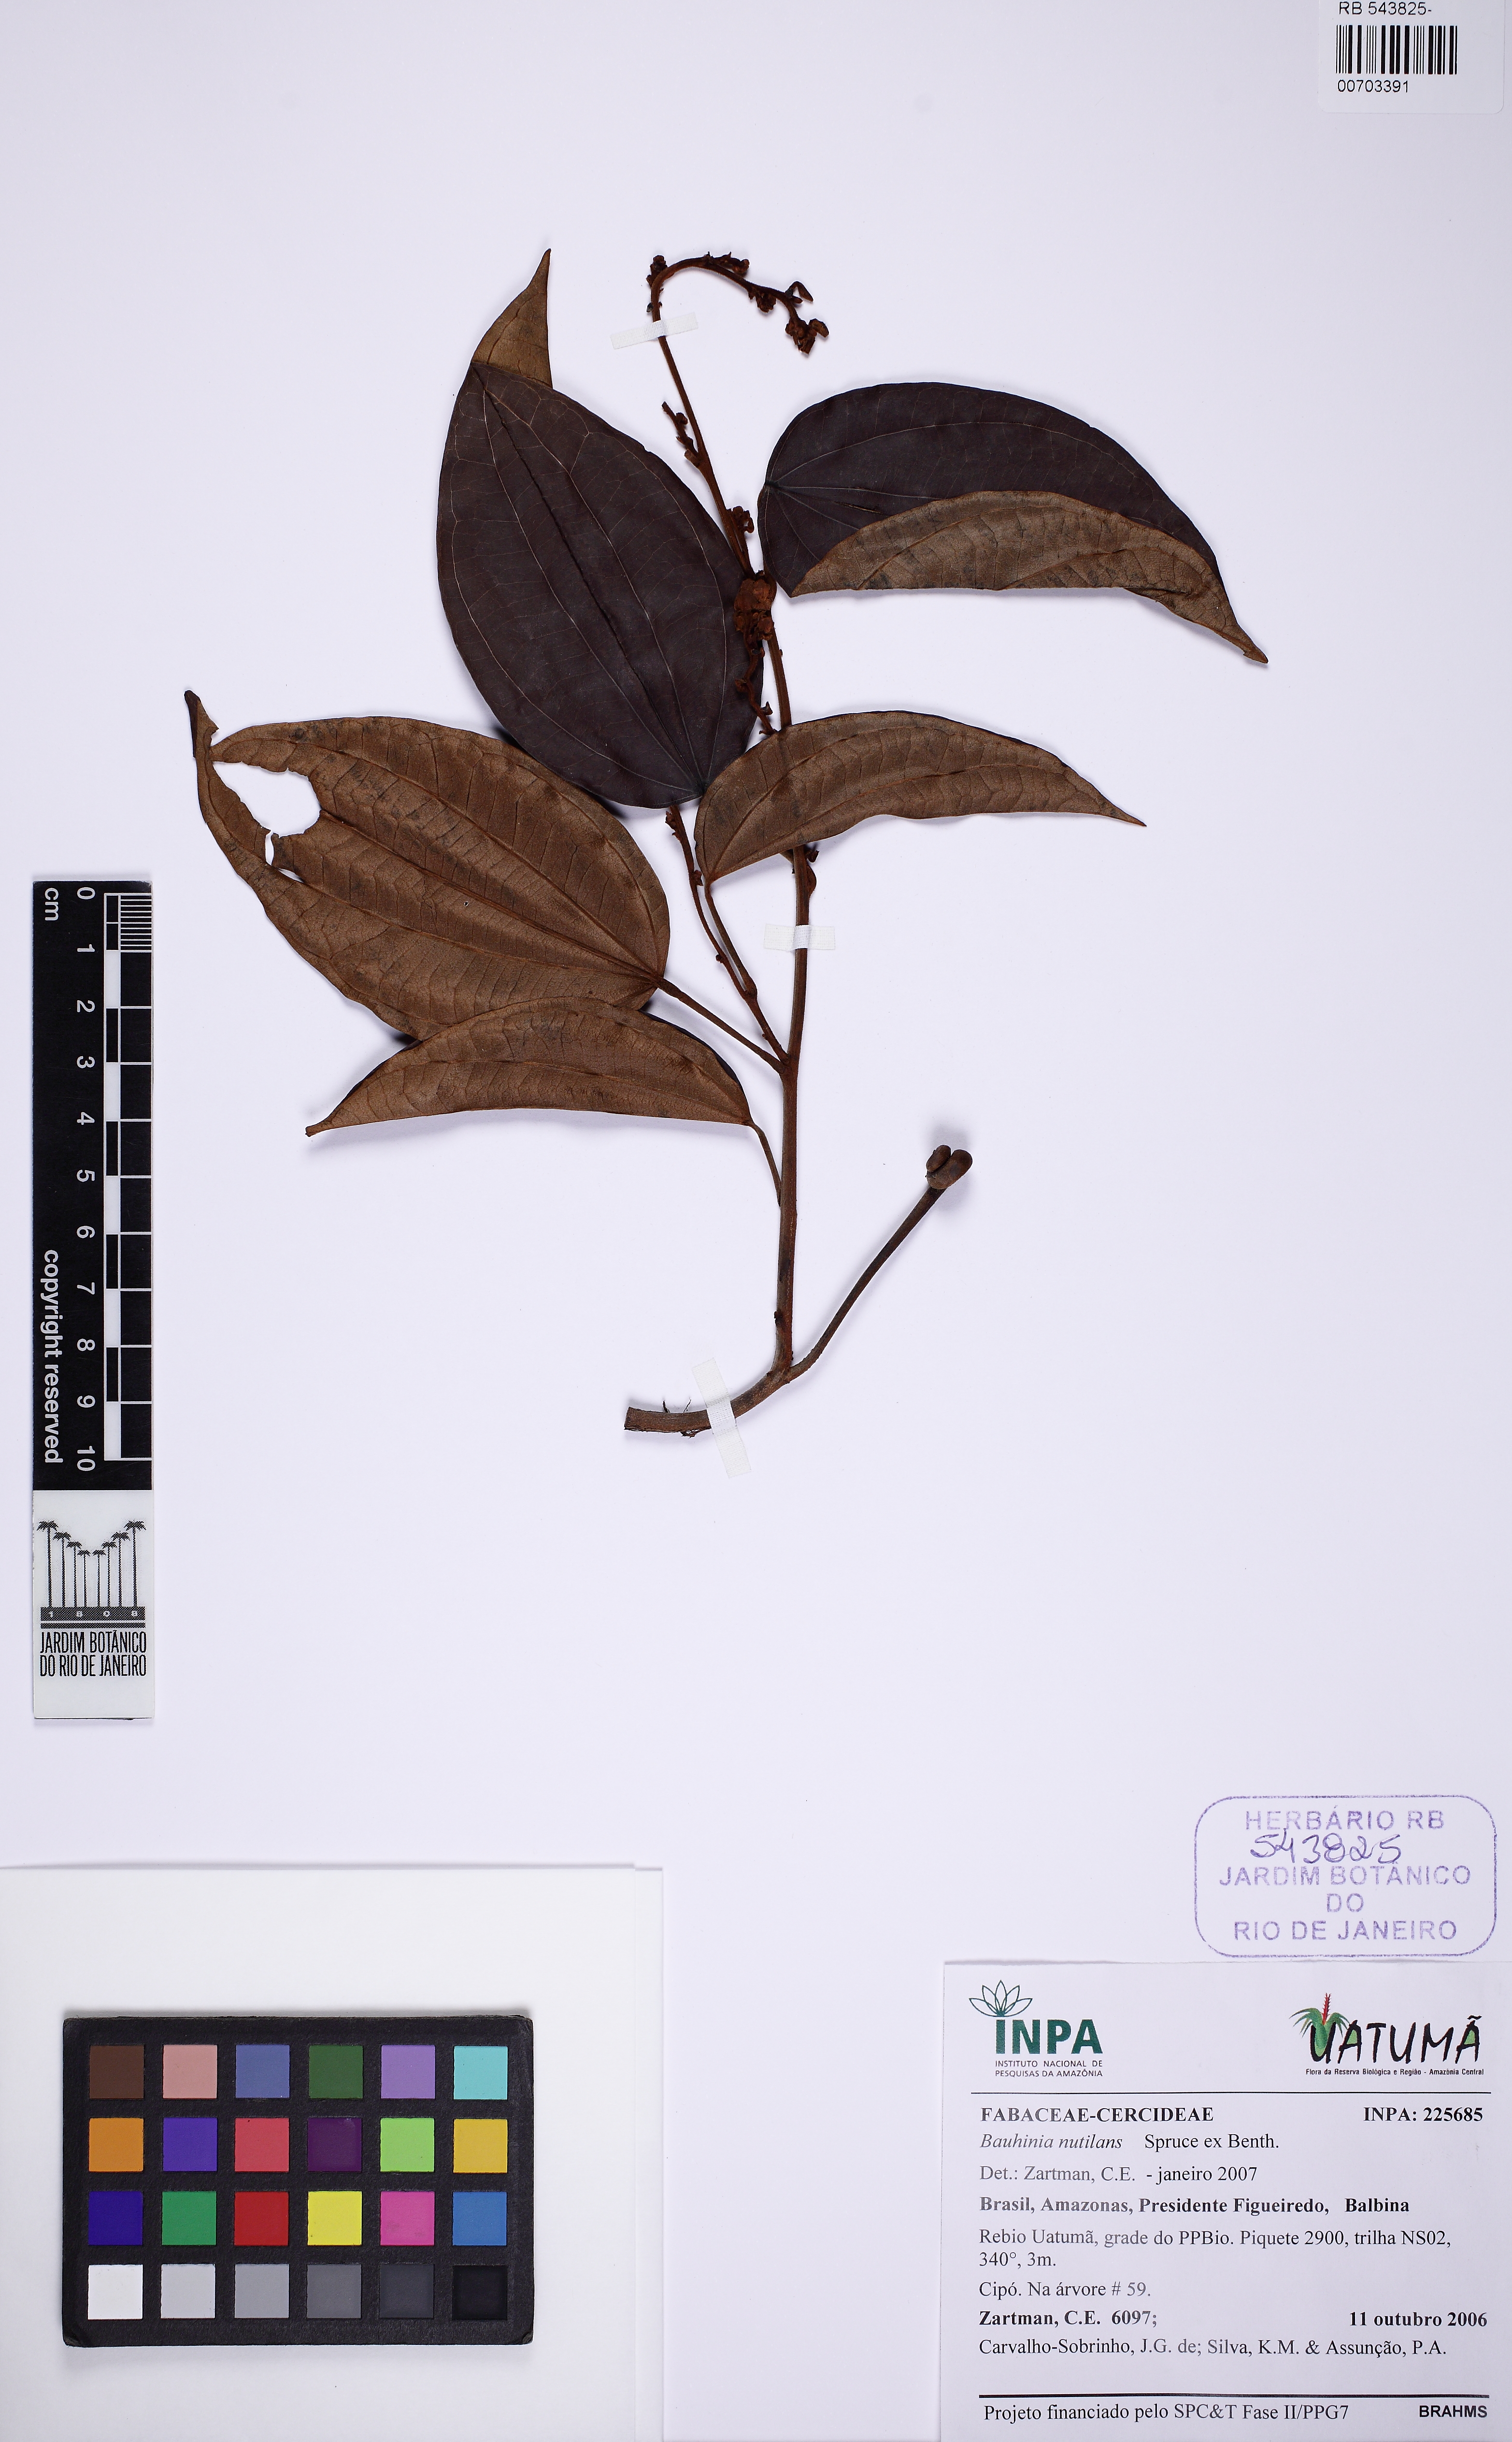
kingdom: Plantae
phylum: Tracheophyta
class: Magnoliopsida
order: Fabales
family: Fabaceae
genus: Schnella
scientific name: Schnella rutilans
